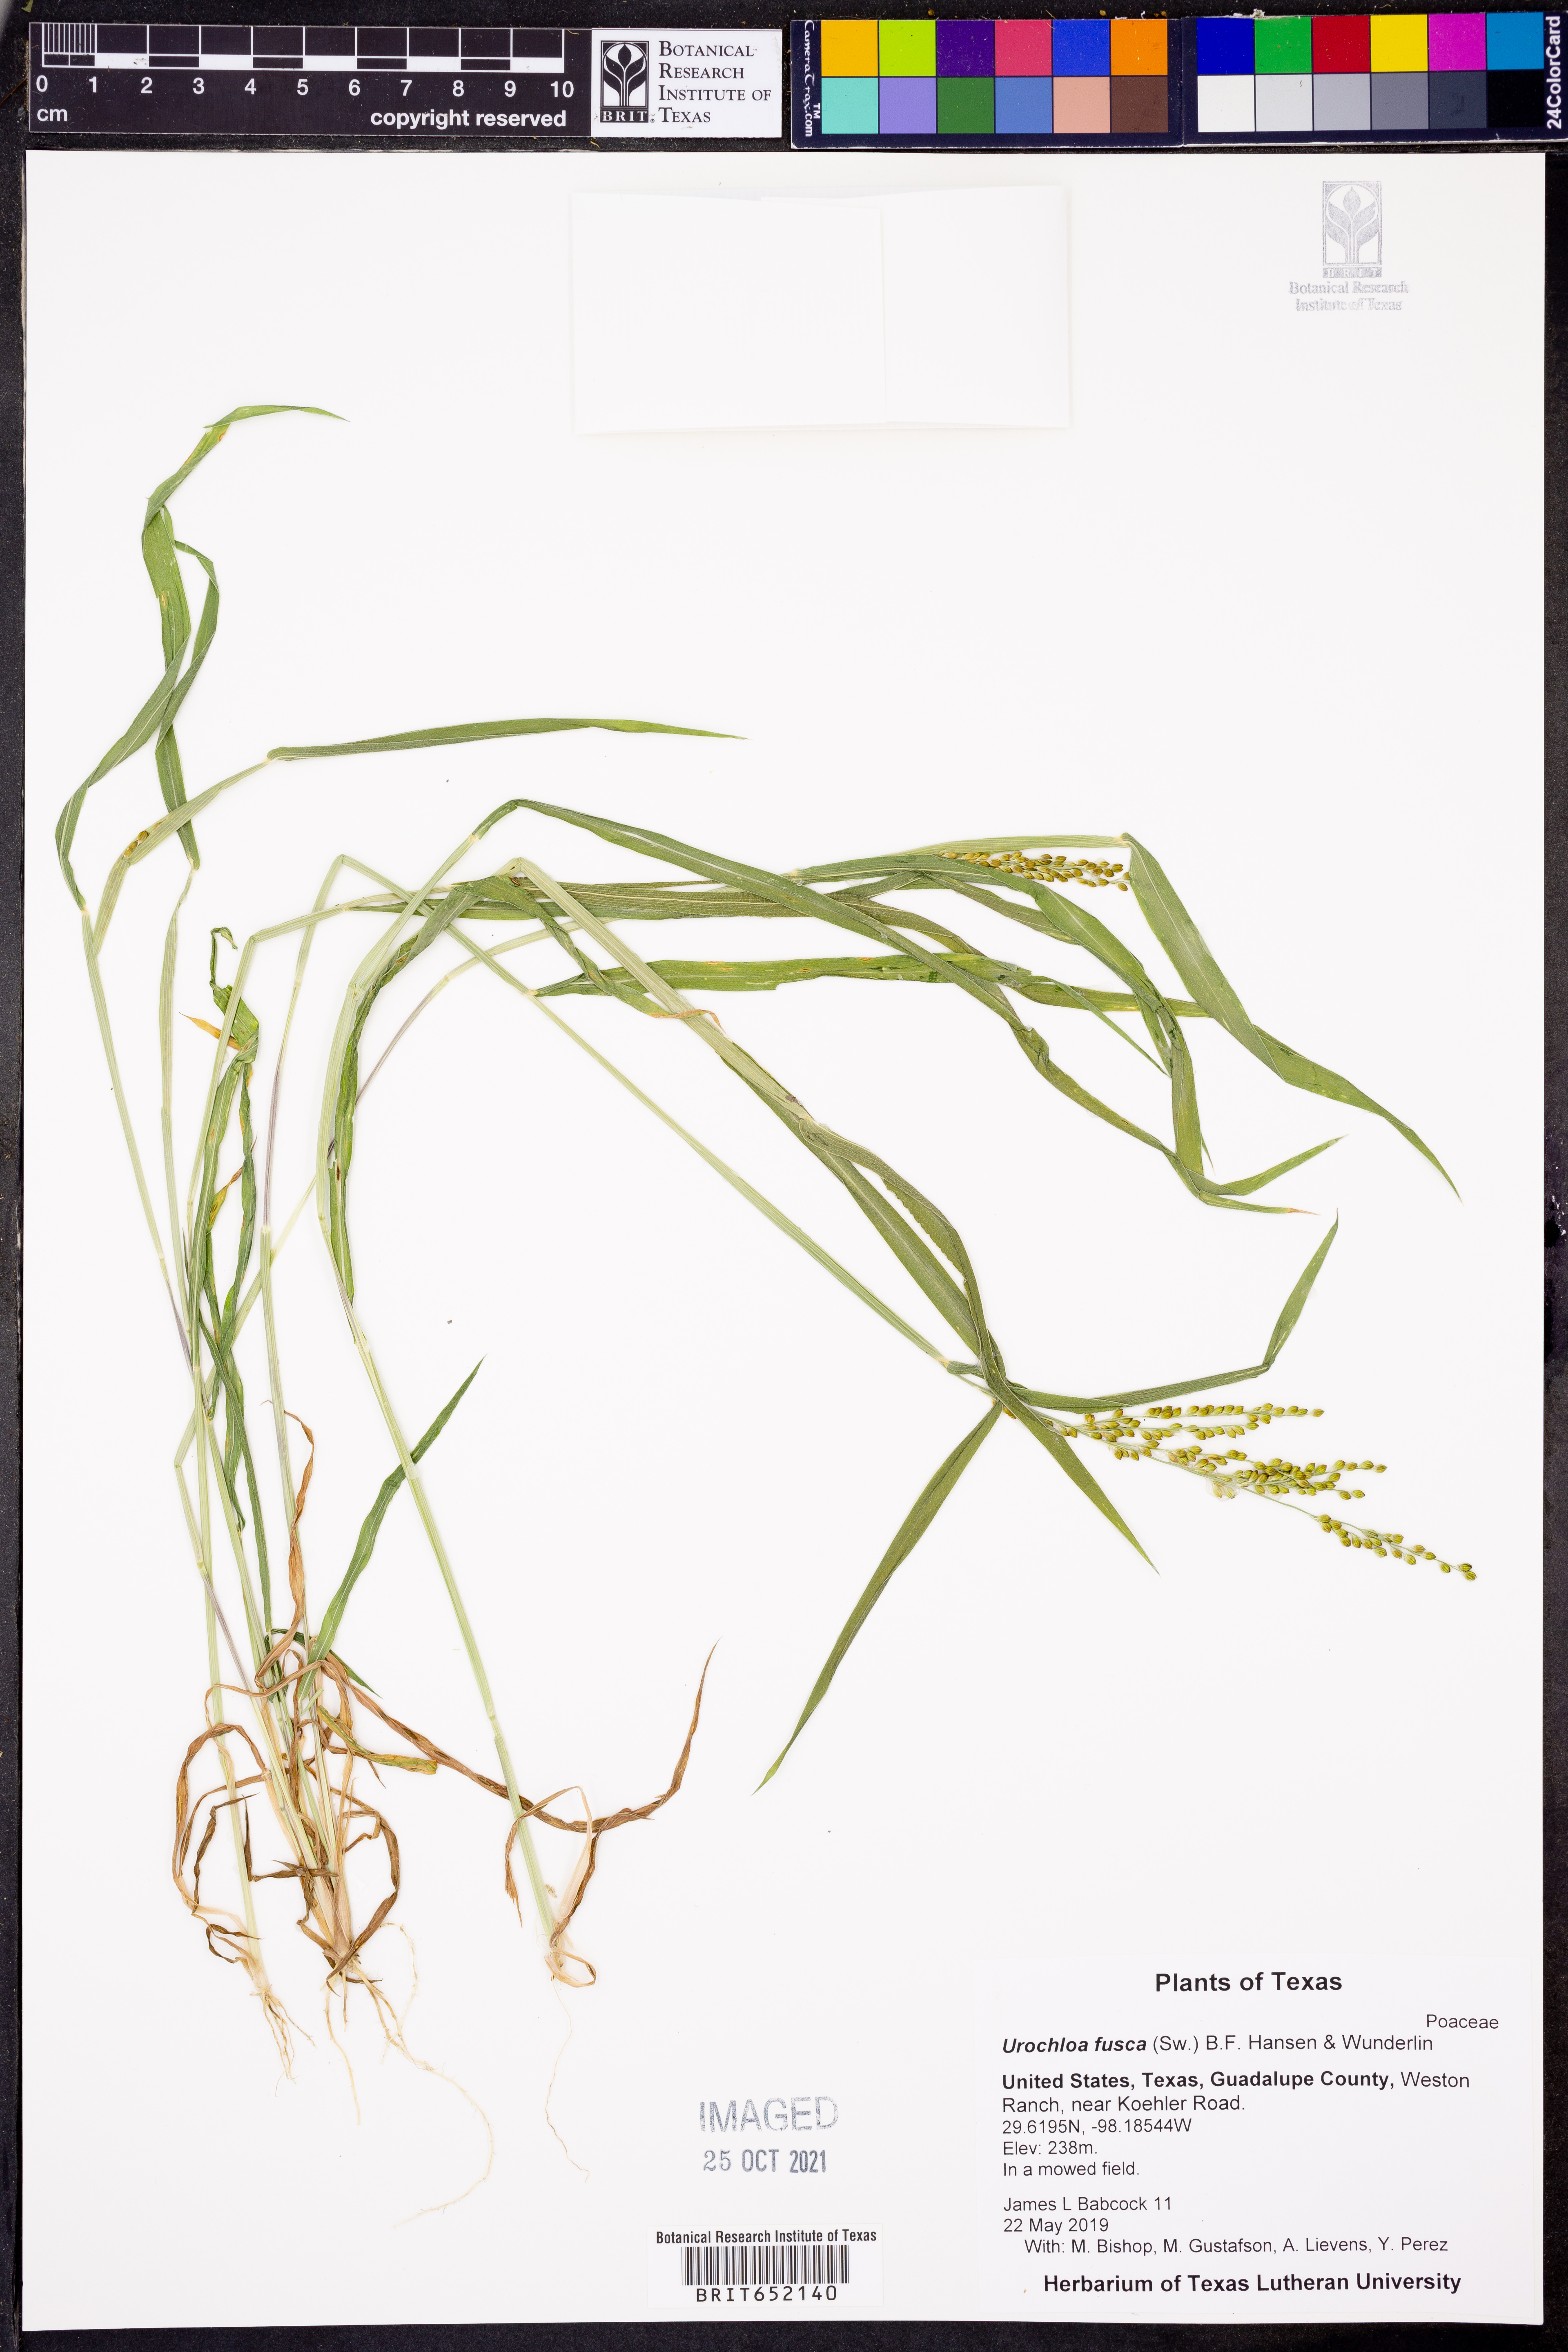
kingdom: Plantae
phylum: Tracheophyta
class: Liliopsida
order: Poales
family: Poaceae
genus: Urochloa
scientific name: Urochloa fusca
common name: Browntop signal grass
